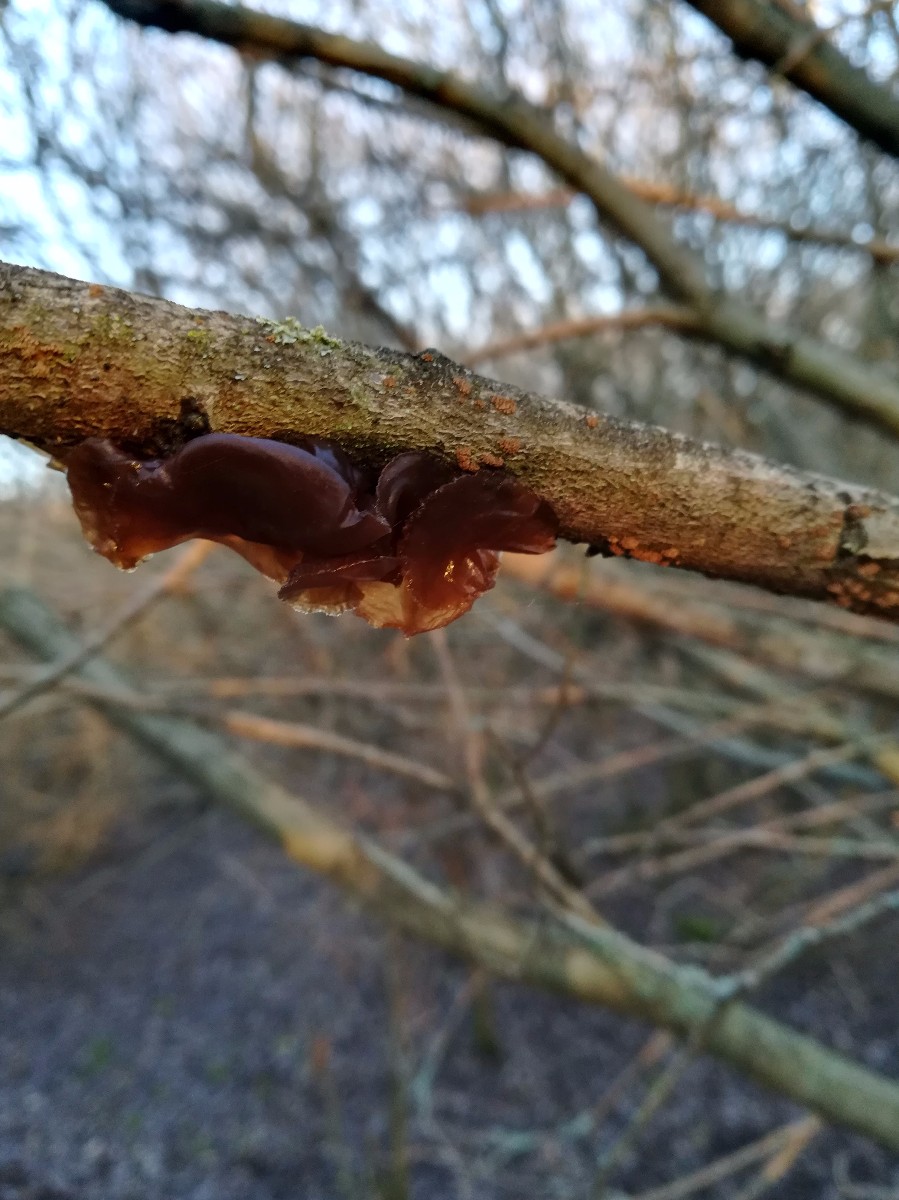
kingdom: Fungi
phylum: Basidiomycota
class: Agaricomycetes
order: Auriculariales
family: Auriculariaceae
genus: Exidia
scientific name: Exidia recisa
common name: pile-bævretop
